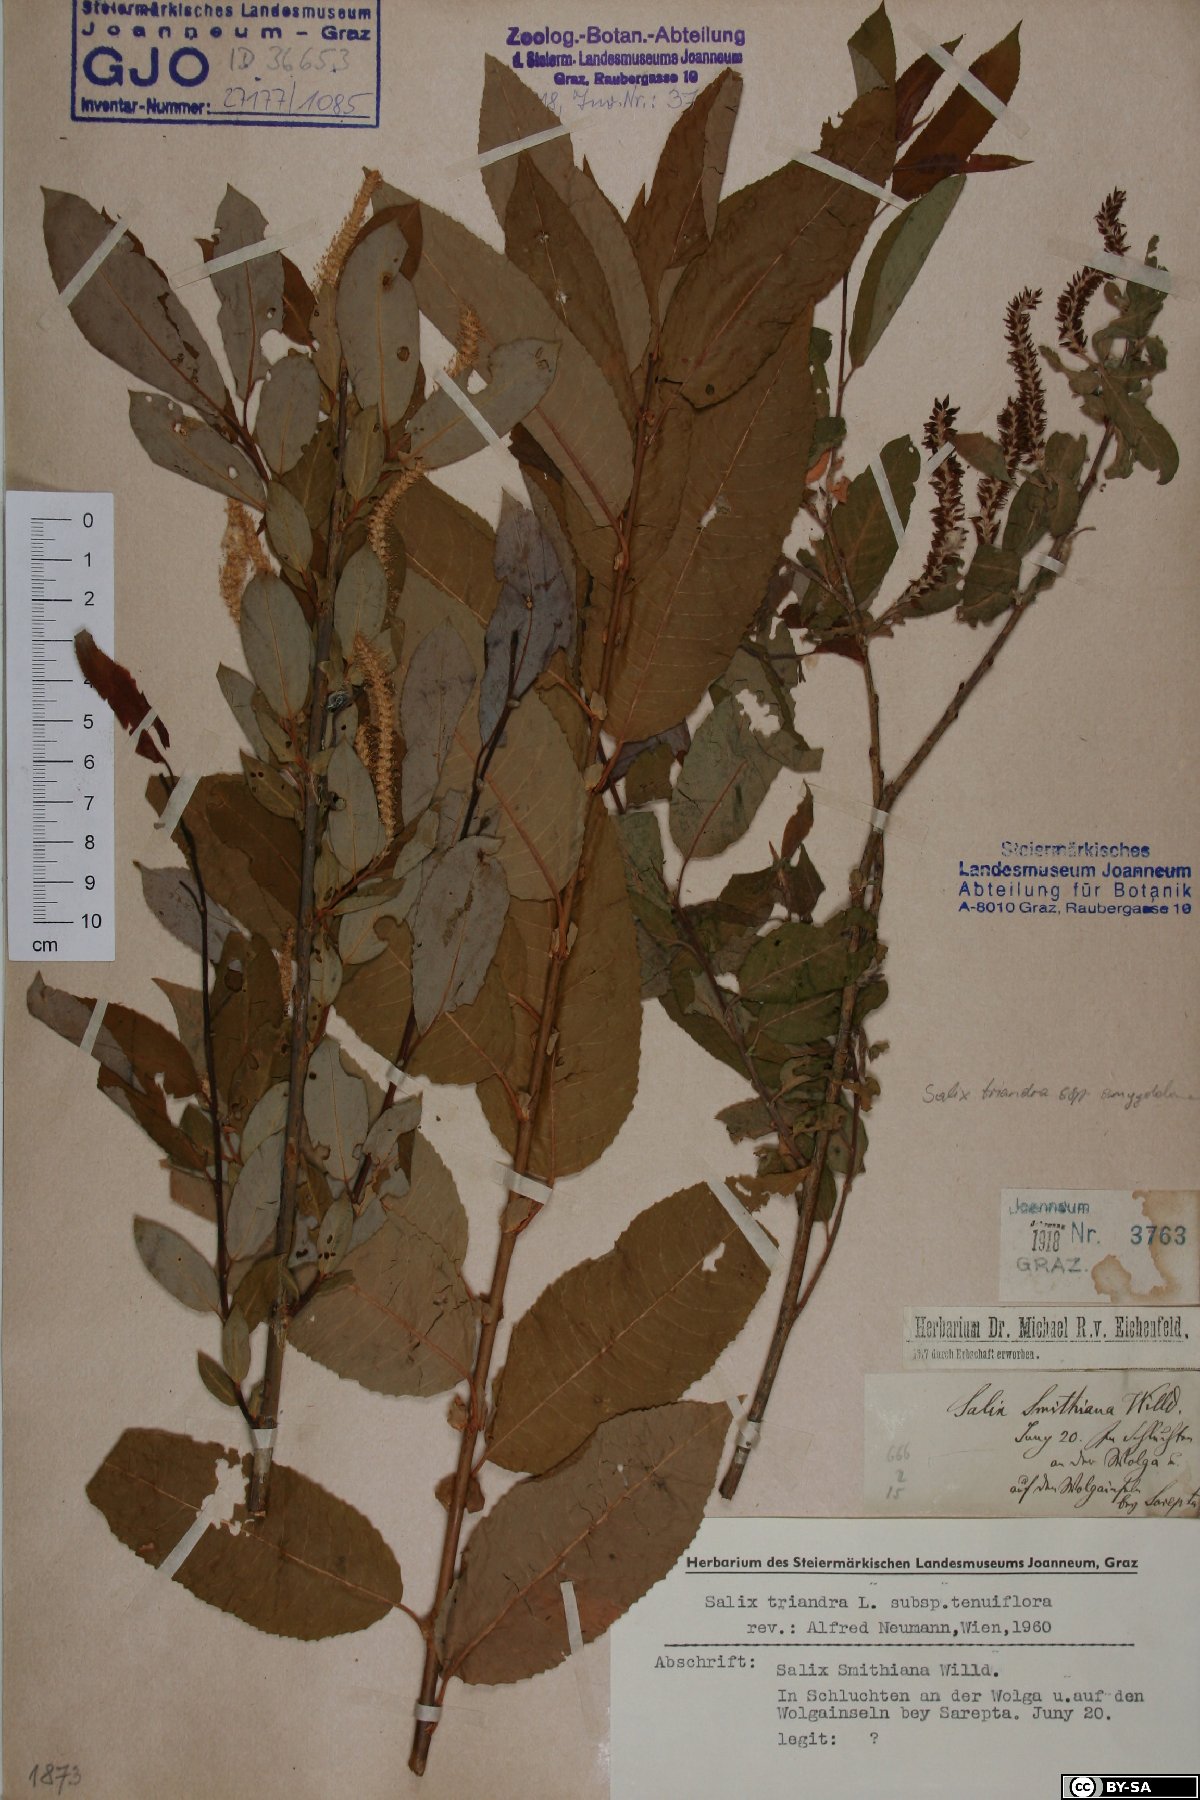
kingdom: Plantae
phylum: Tracheophyta
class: Magnoliopsida
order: Malpighiales
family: Salicaceae
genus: Salix
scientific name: Salix triandra
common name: Almond willow
